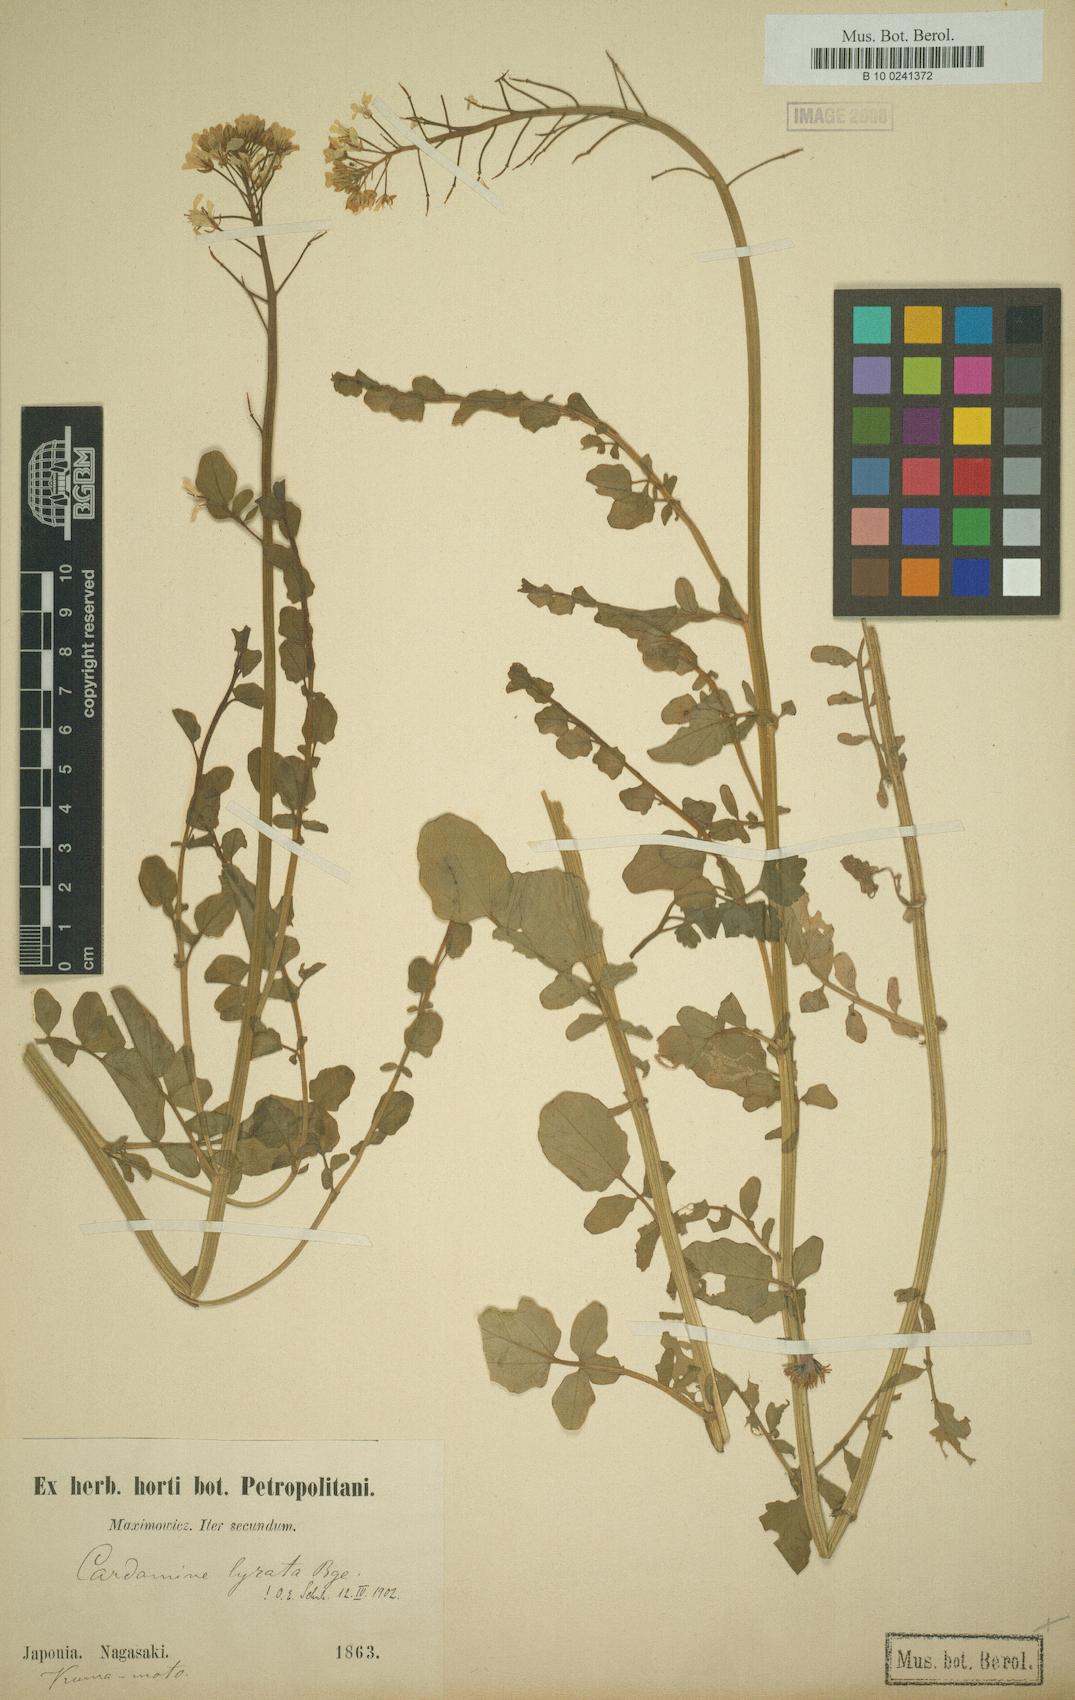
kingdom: Plantae
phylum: Tracheophyta
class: Magnoliopsida
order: Brassicales
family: Brassicaceae
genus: Cardamine
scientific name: Cardamine lyrata
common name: Chinese-ivy
